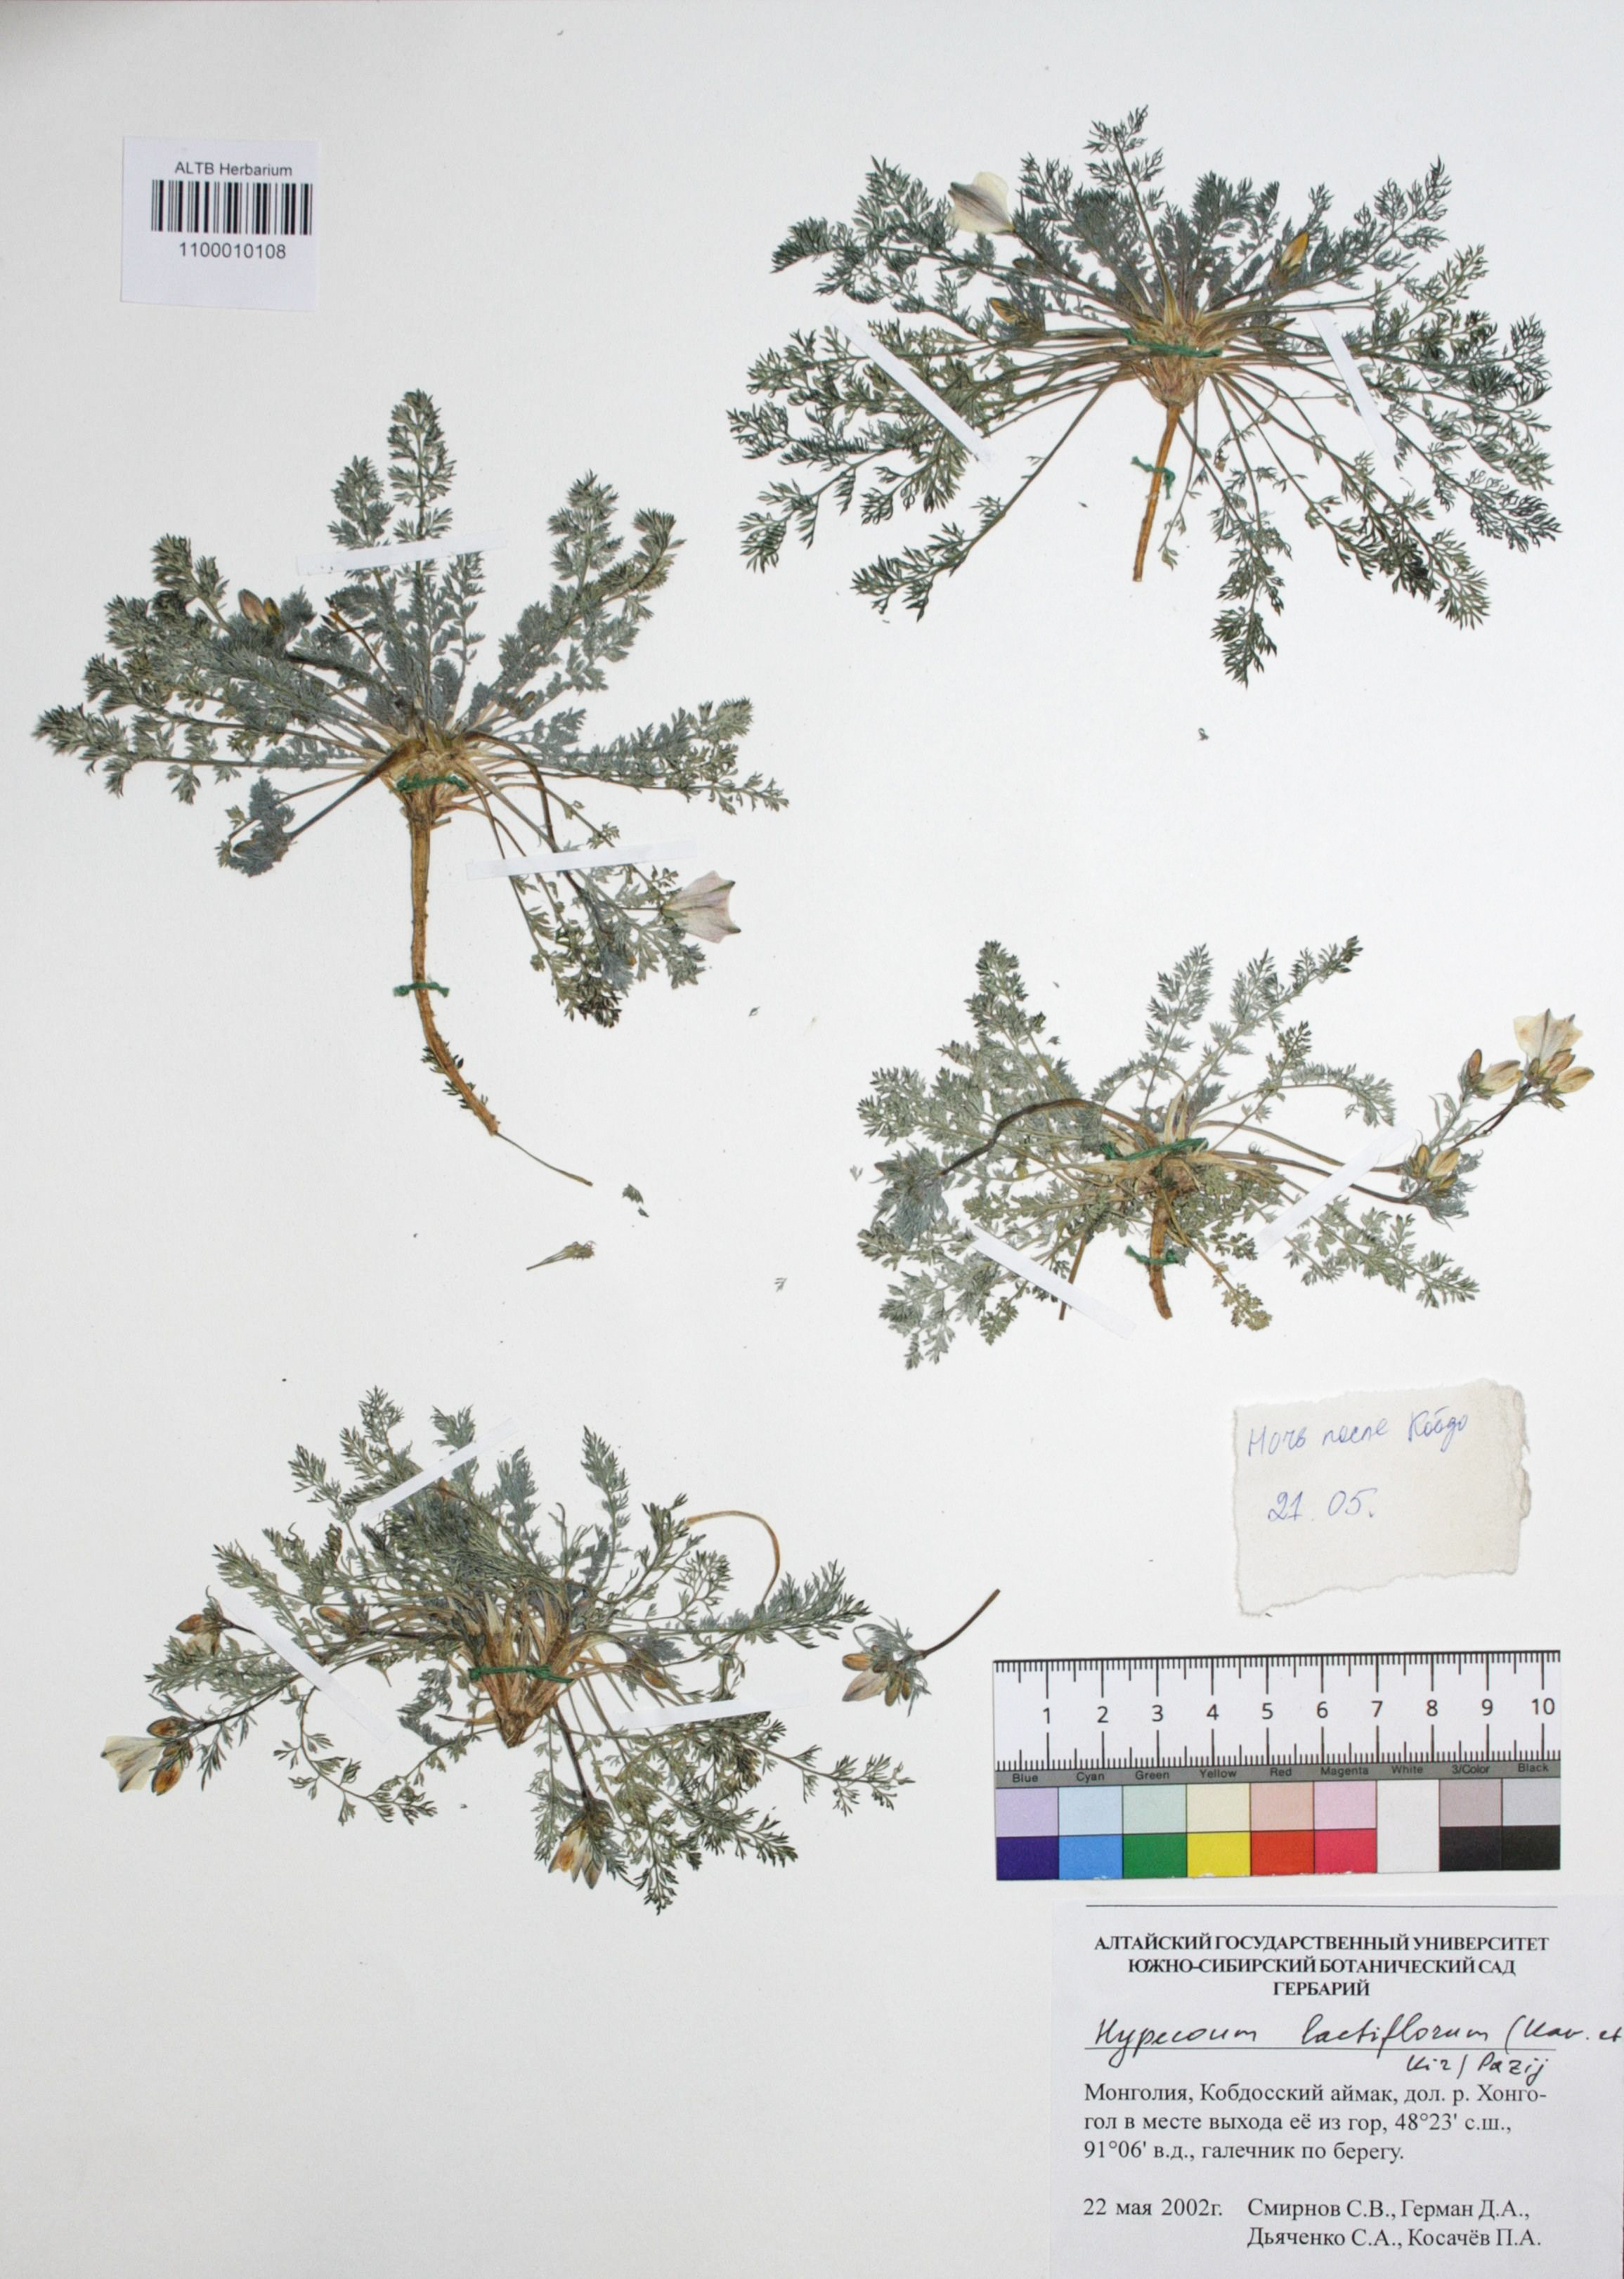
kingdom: Plantae
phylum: Tracheophyta
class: Magnoliopsida
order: Ranunculales
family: Papaveraceae
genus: Hypecoum
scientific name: Hypecoum lactiflorum
